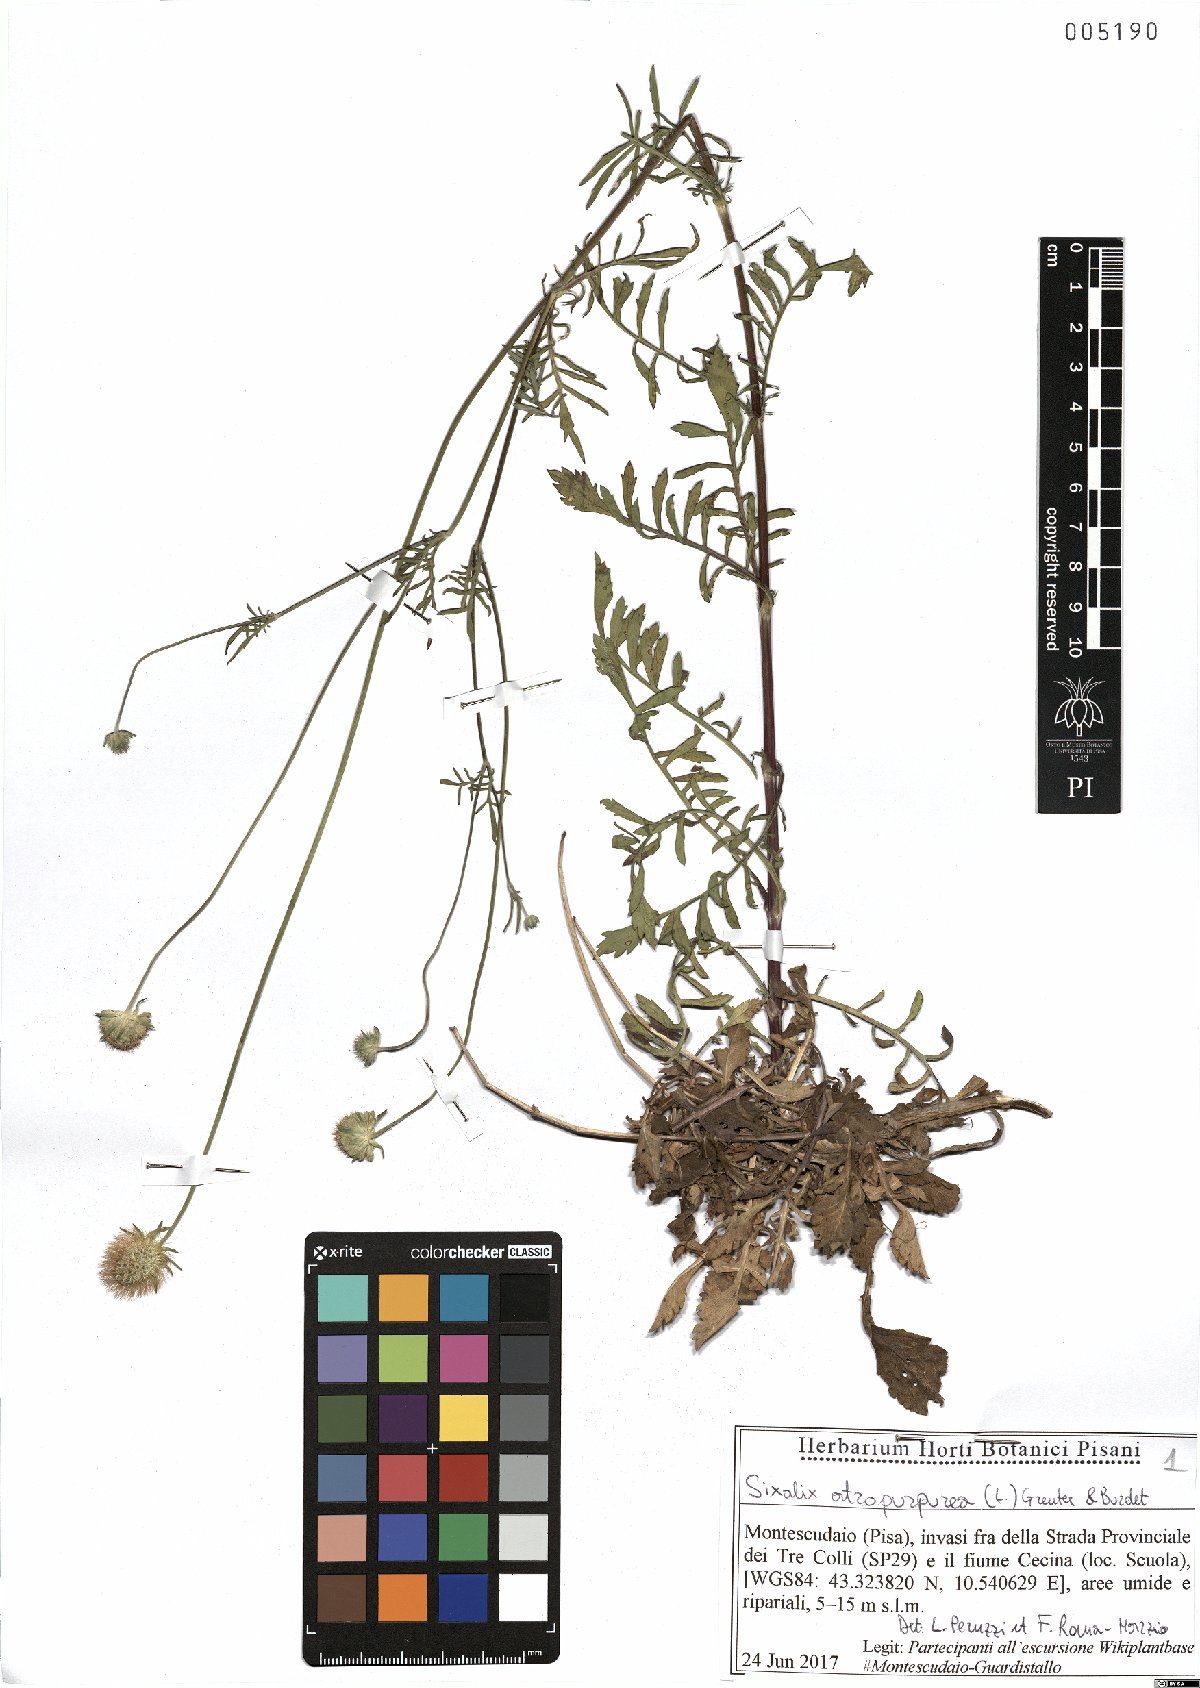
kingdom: Plantae
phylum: Tracheophyta
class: Magnoliopsida
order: Dipsacales
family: Caprifoliaceae
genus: Sixalix
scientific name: Sixalix atropurpurea
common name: Sweet scabious
